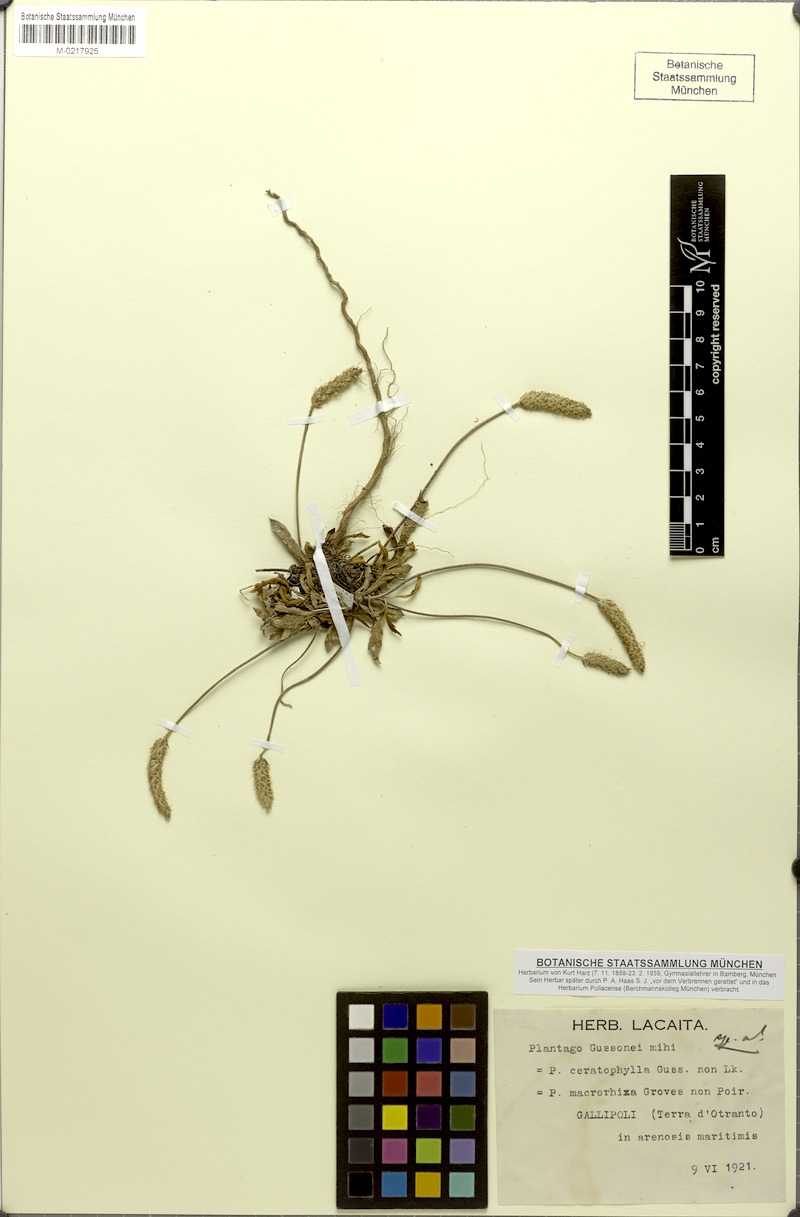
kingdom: Plantae
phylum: Tracheophyta
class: Magnoliopsida
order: Lamiales
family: Plantaginaceae
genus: Plantago
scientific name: Plantago subulata
